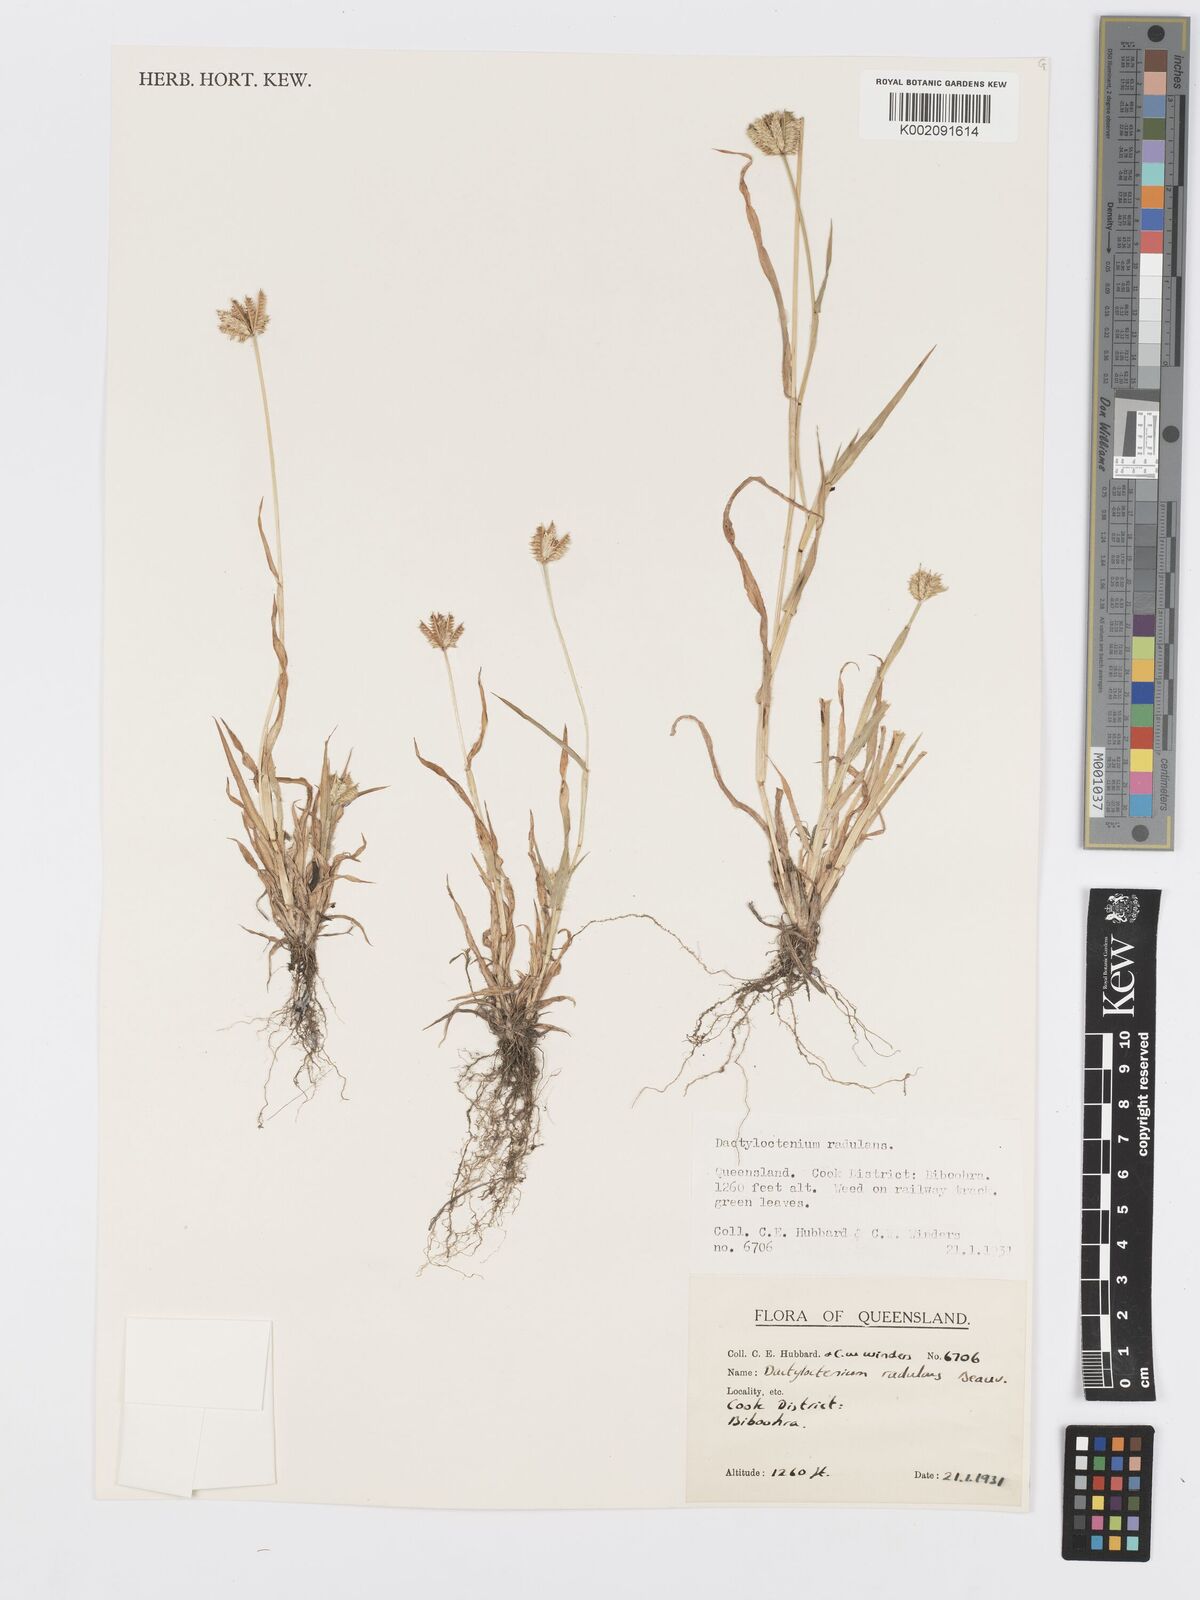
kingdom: Plantae
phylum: Tracheophyta
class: Liliopsida
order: Poales
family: Poaceae
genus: Dactyloctenium
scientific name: Dactyloctenium radulans
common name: Button-grass
